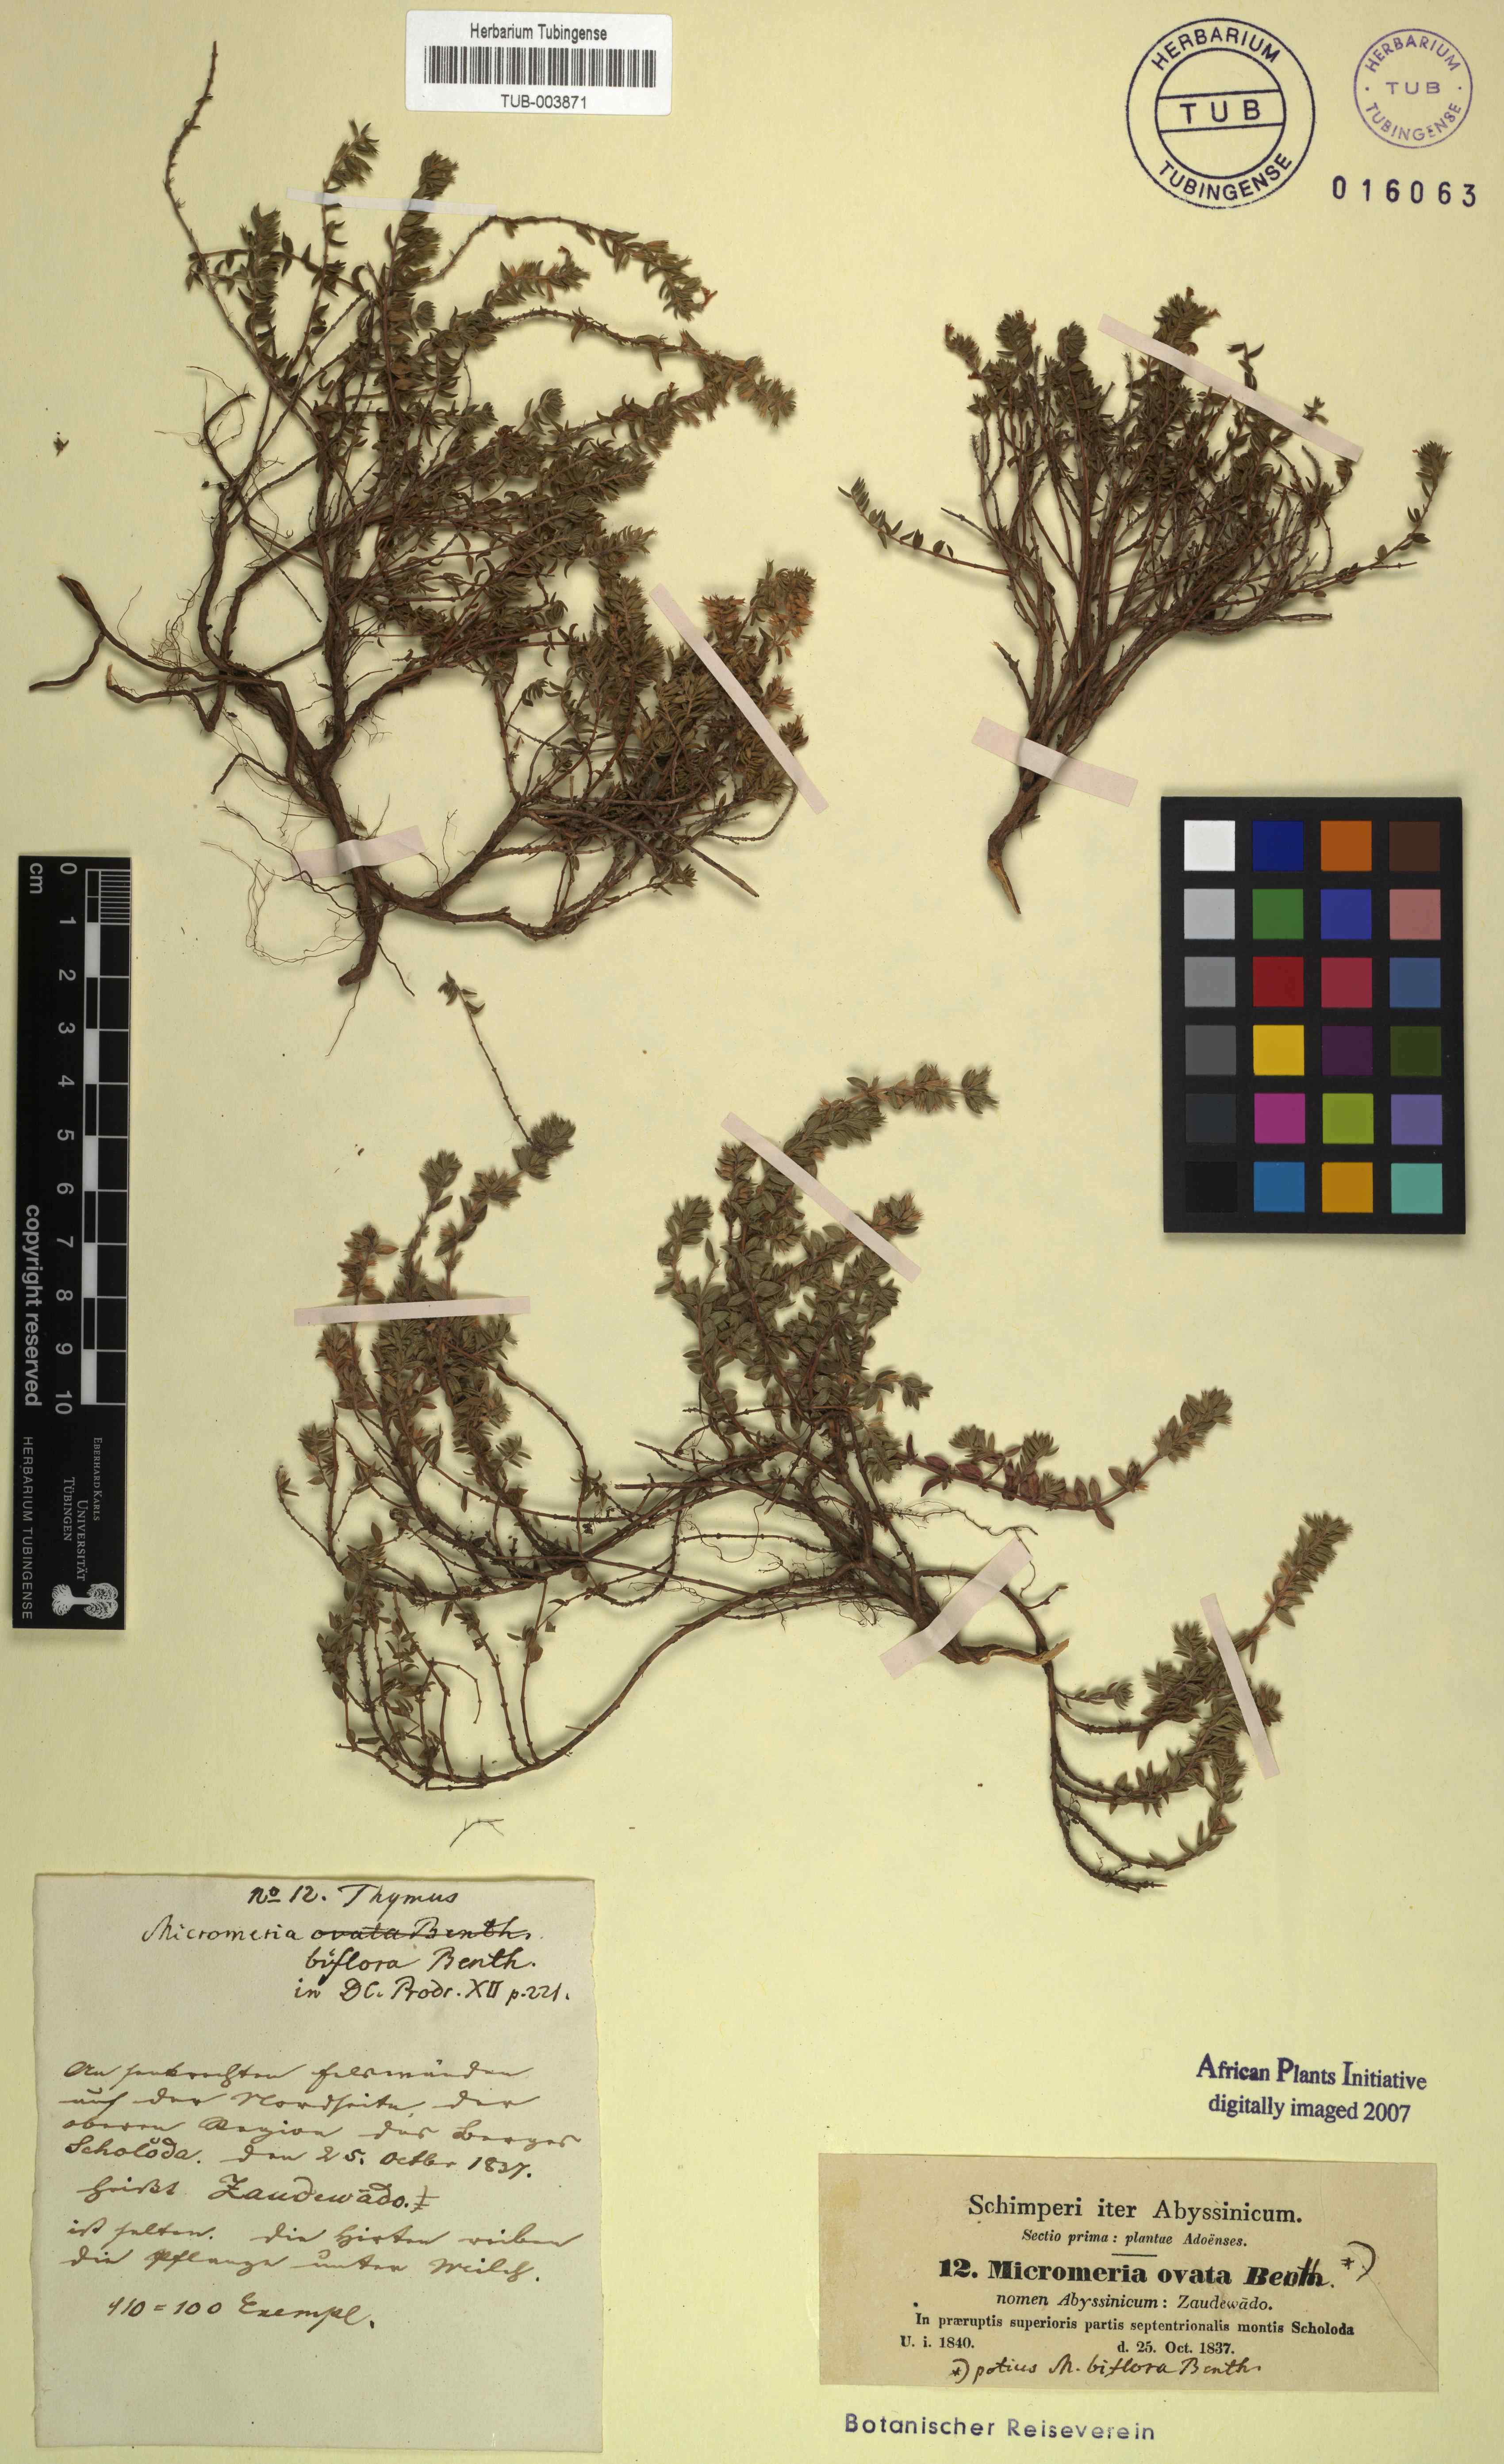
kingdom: Plantae
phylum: Tracheophyta
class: Magnoliopsida
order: Lamiales
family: Lamiaceae
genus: Micromeria
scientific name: Micromeria imbricata
